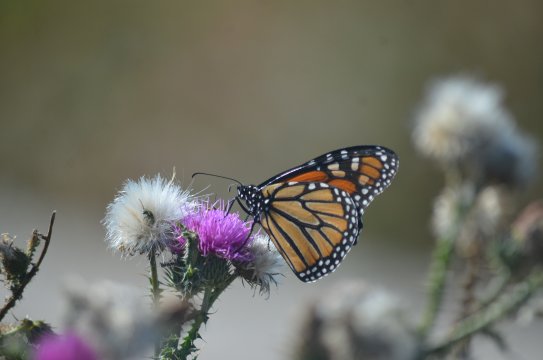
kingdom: Animalia
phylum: Arthropoda
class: Insecta
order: Lepidoptera
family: Nymphalidae
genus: Danaus
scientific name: Danaus plexippus
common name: Monarch
